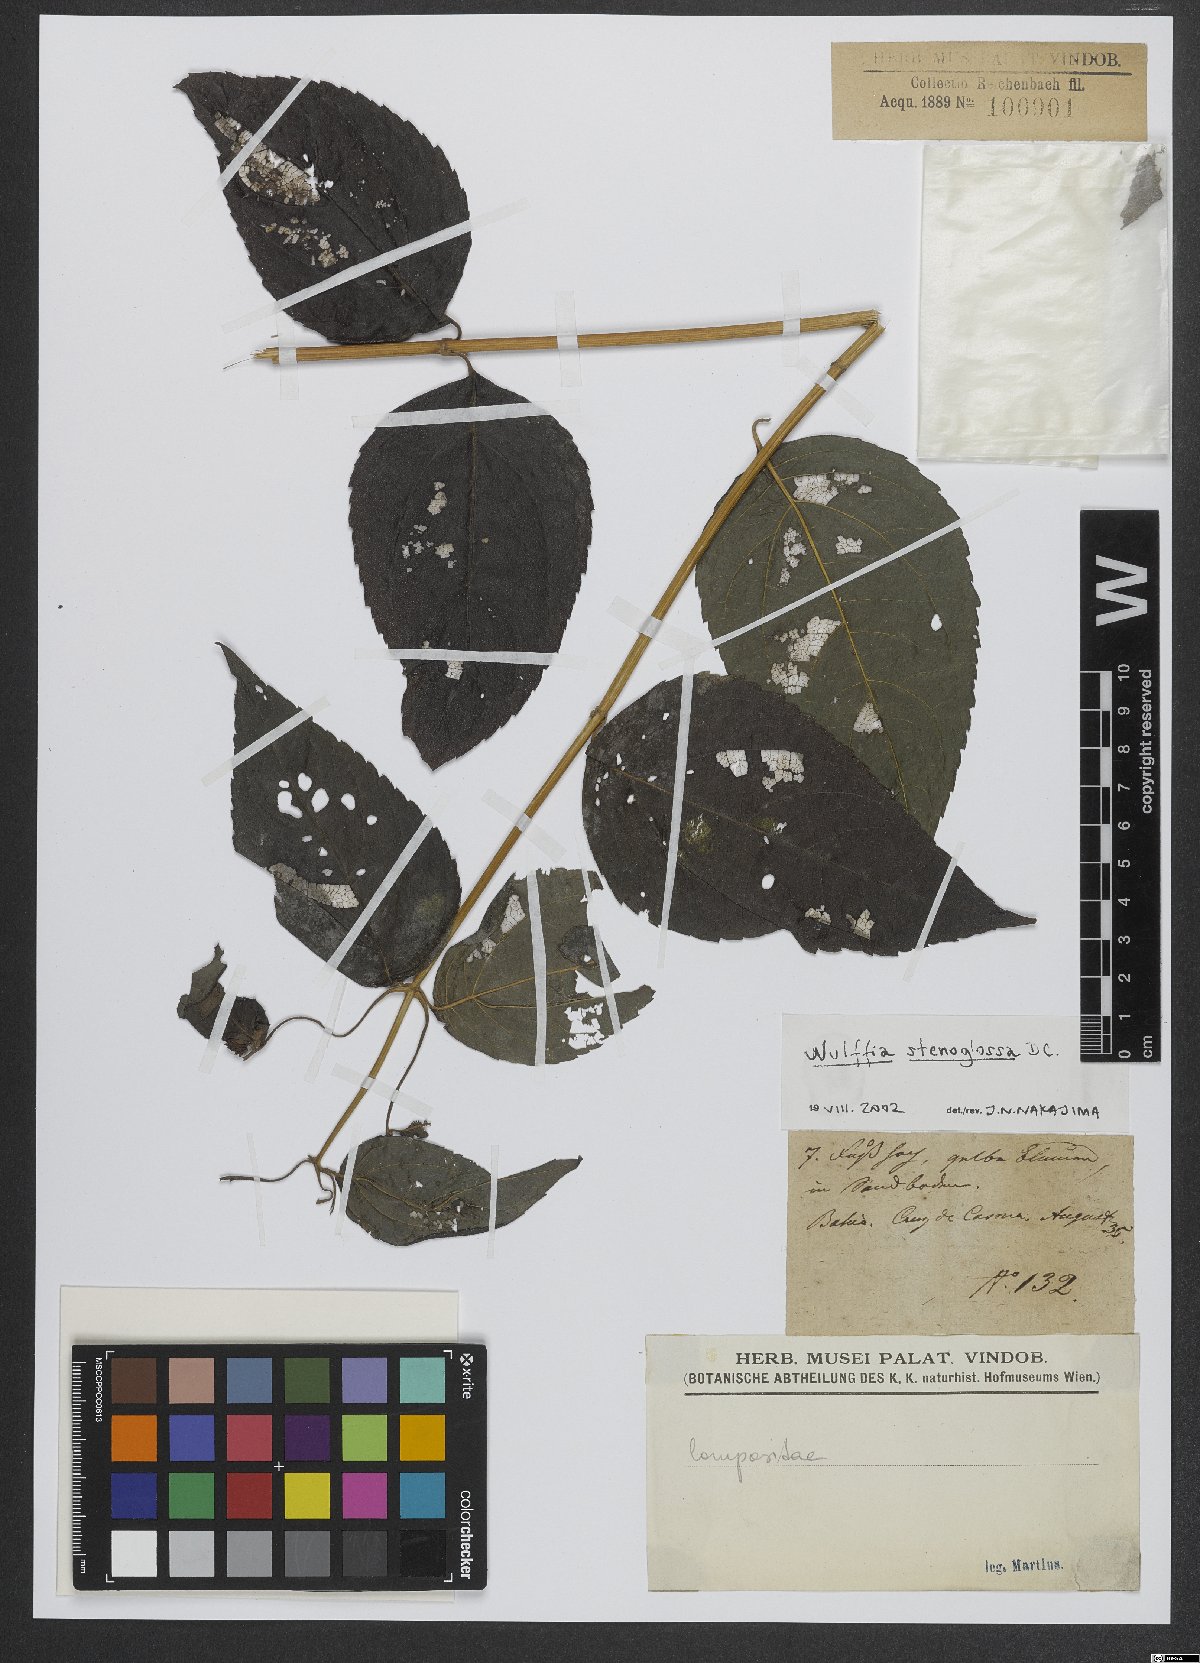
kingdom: Plantae
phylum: Tracheophyta
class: Magnoliopsida
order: Asterales
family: Asteraceae
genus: Tilesia
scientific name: Tilesia
